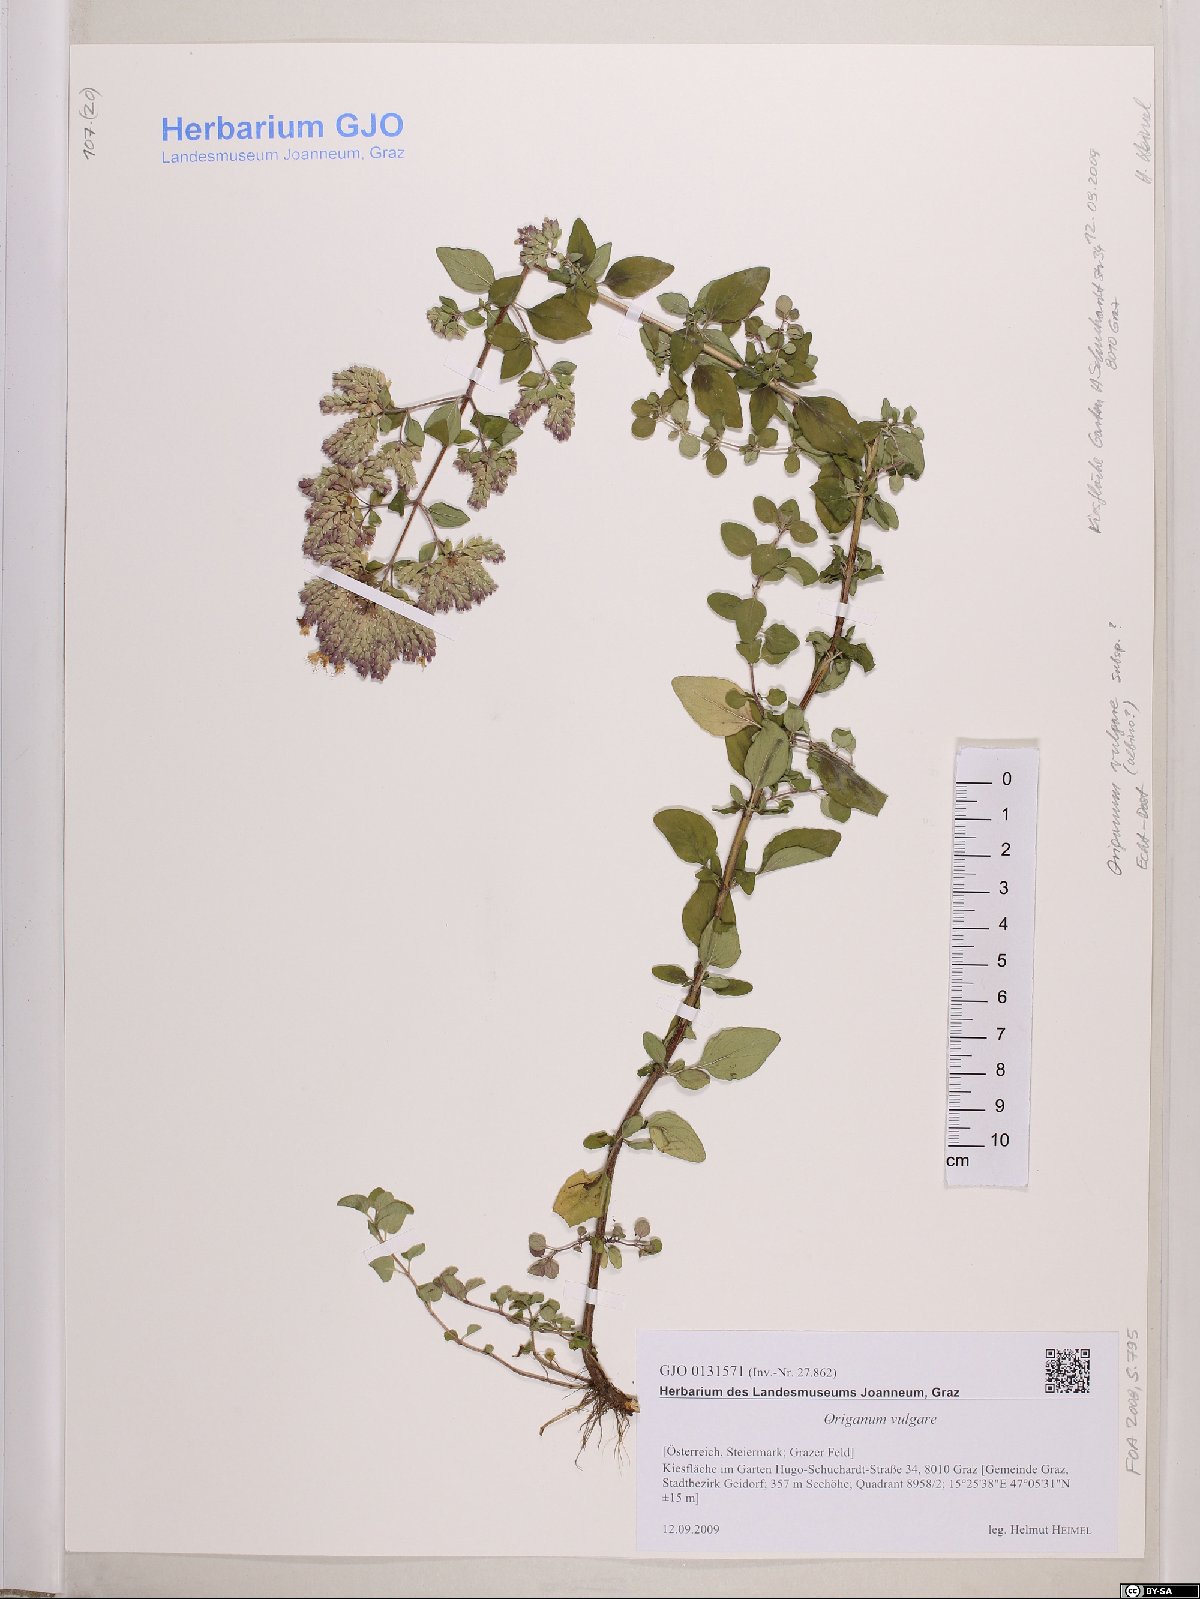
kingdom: Plantae
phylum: Tracheophyta
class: Magnoliopsida
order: Lamiales
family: Lamiaceae
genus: Origanum
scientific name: Origanum vulgare
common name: Wild marjoram
